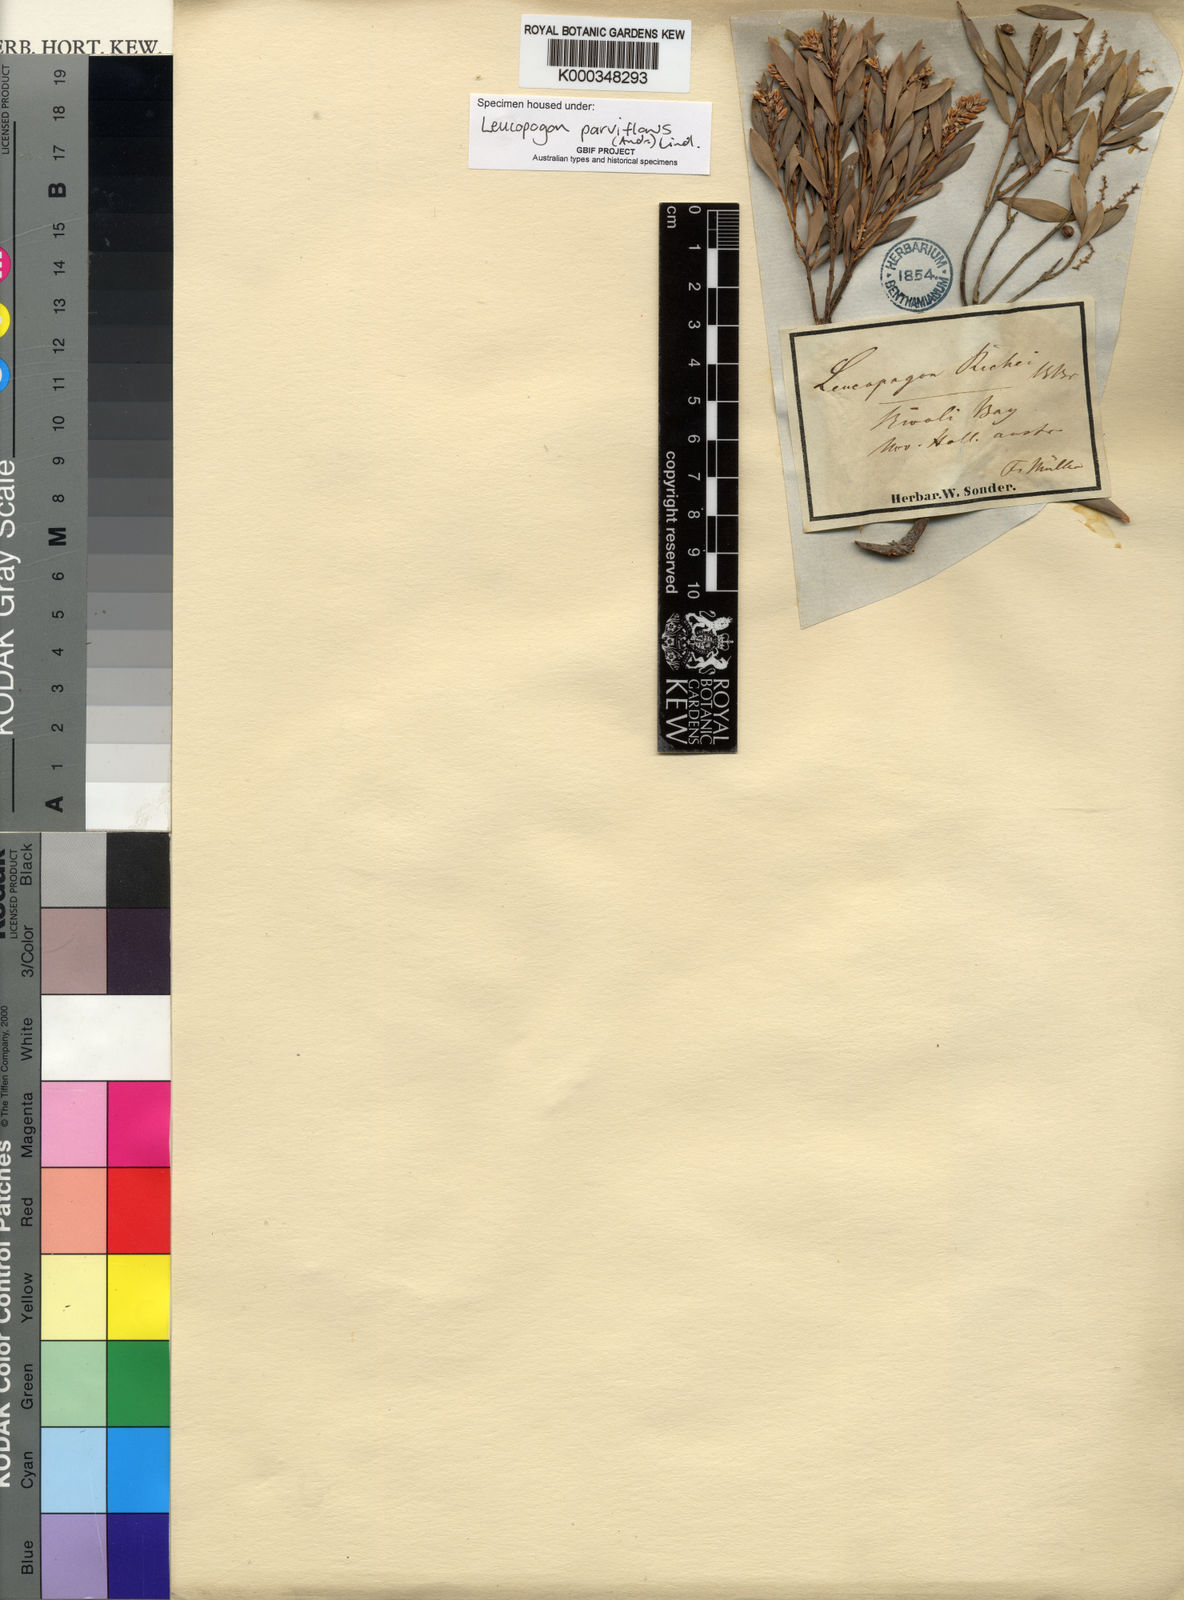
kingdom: Plantae
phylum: Tracheophyta
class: Magnoliopsida
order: Ericales
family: Ericaceae
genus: Leptecophylla
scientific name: Leptecophylla parvifolia
